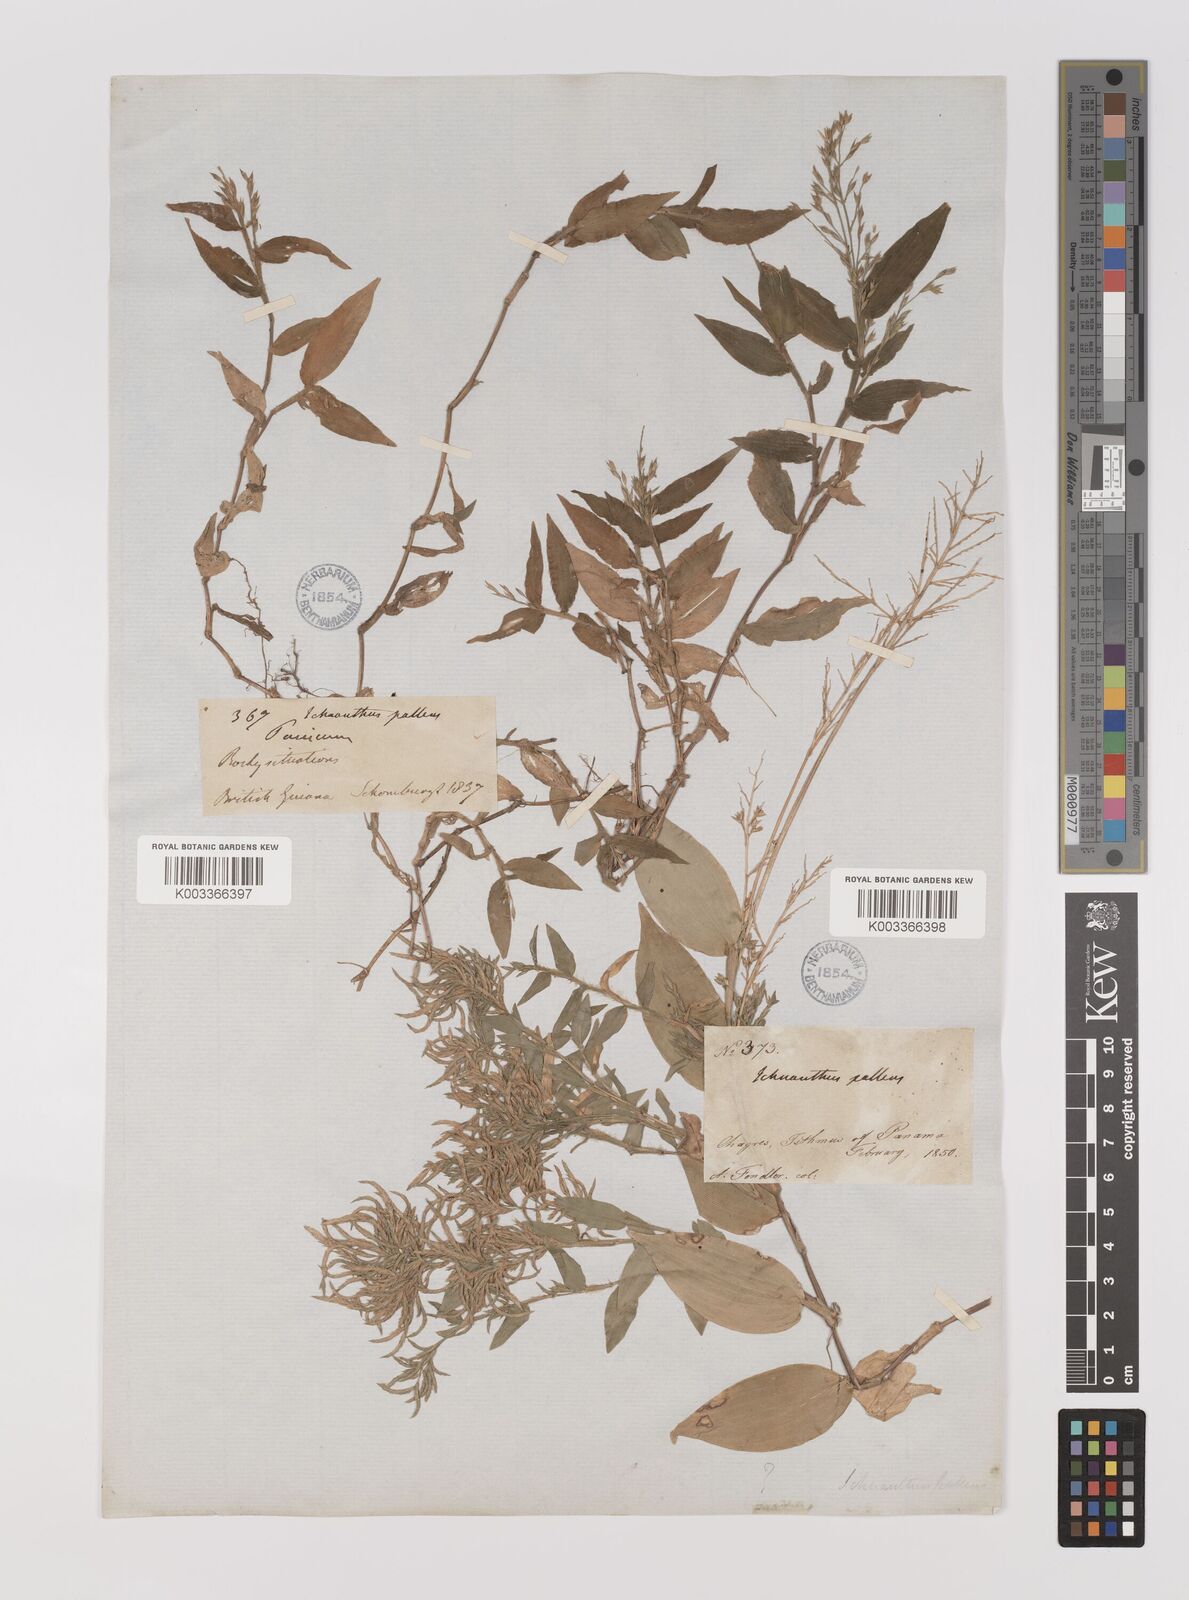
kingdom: Plantae
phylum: Tracheophyta
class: Liliopsida
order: Poales
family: Poaceae
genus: Ichnanthus
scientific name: Ichnanthus pallens
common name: Water grass
